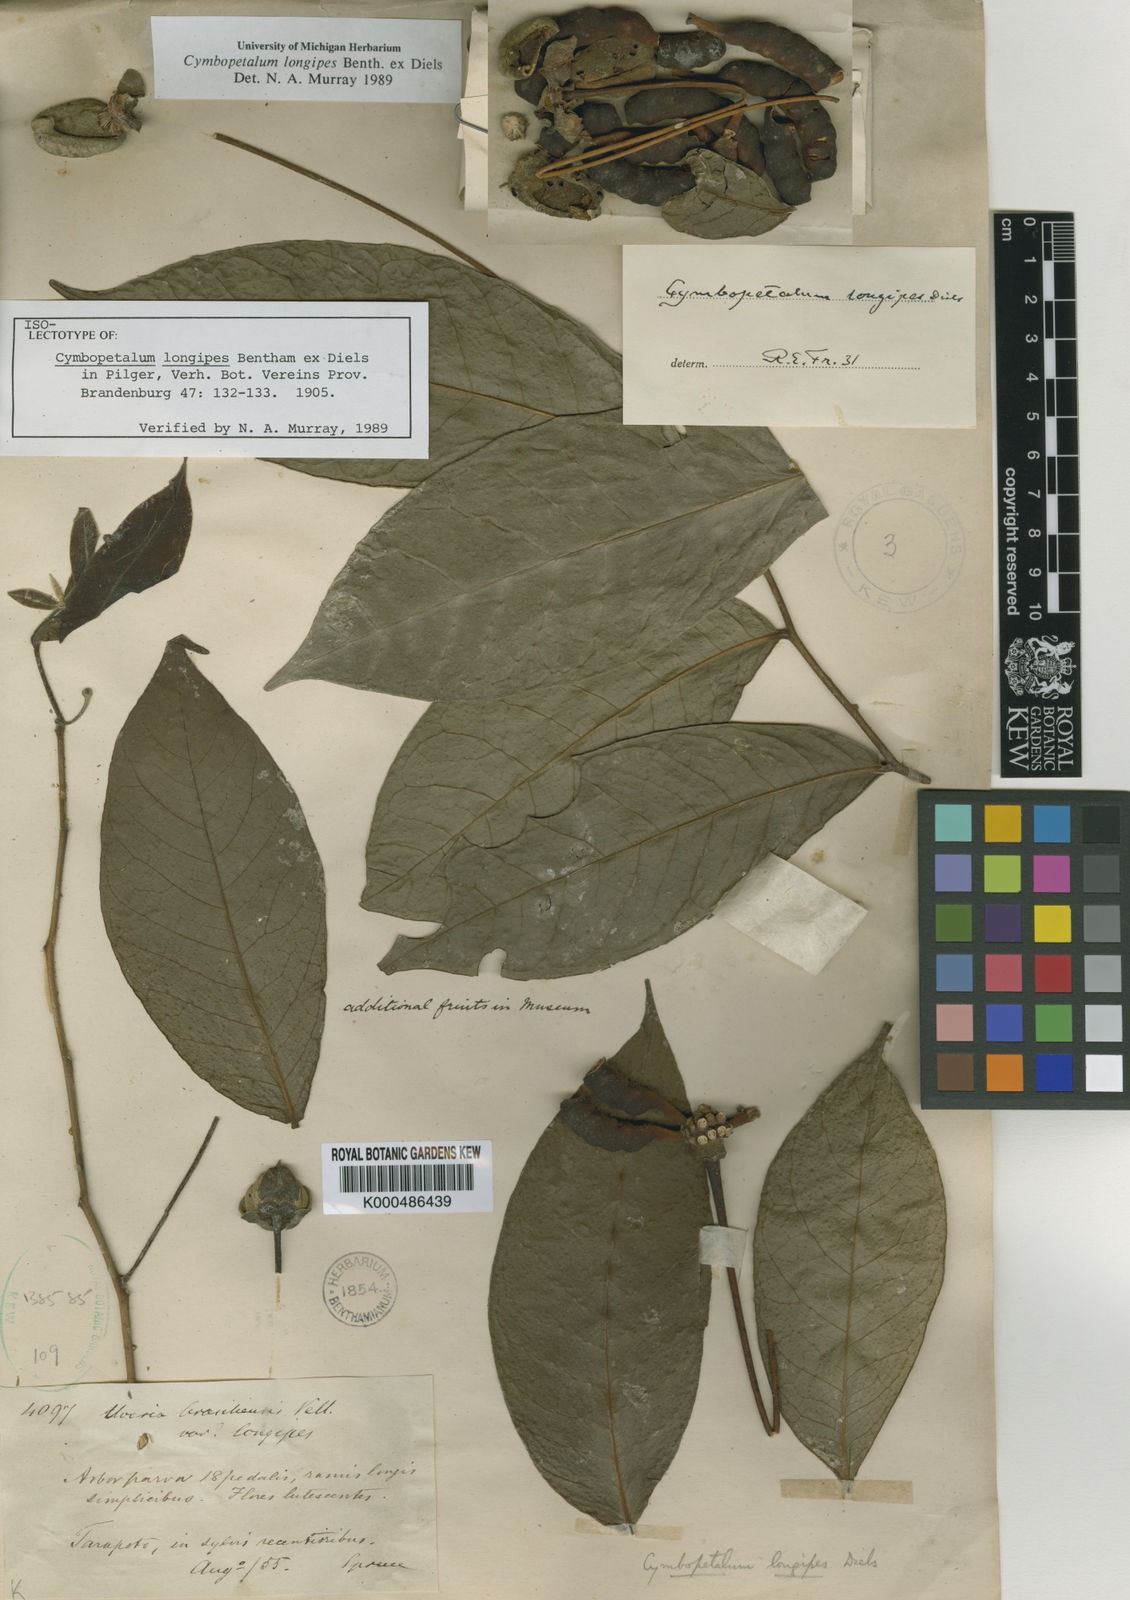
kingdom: Plantae
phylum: Tracheophyta
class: Magnoliopsida
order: Magnoliales
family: Annonaceae
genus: Cymbopetalum
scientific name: Cymbopetalum longipes
